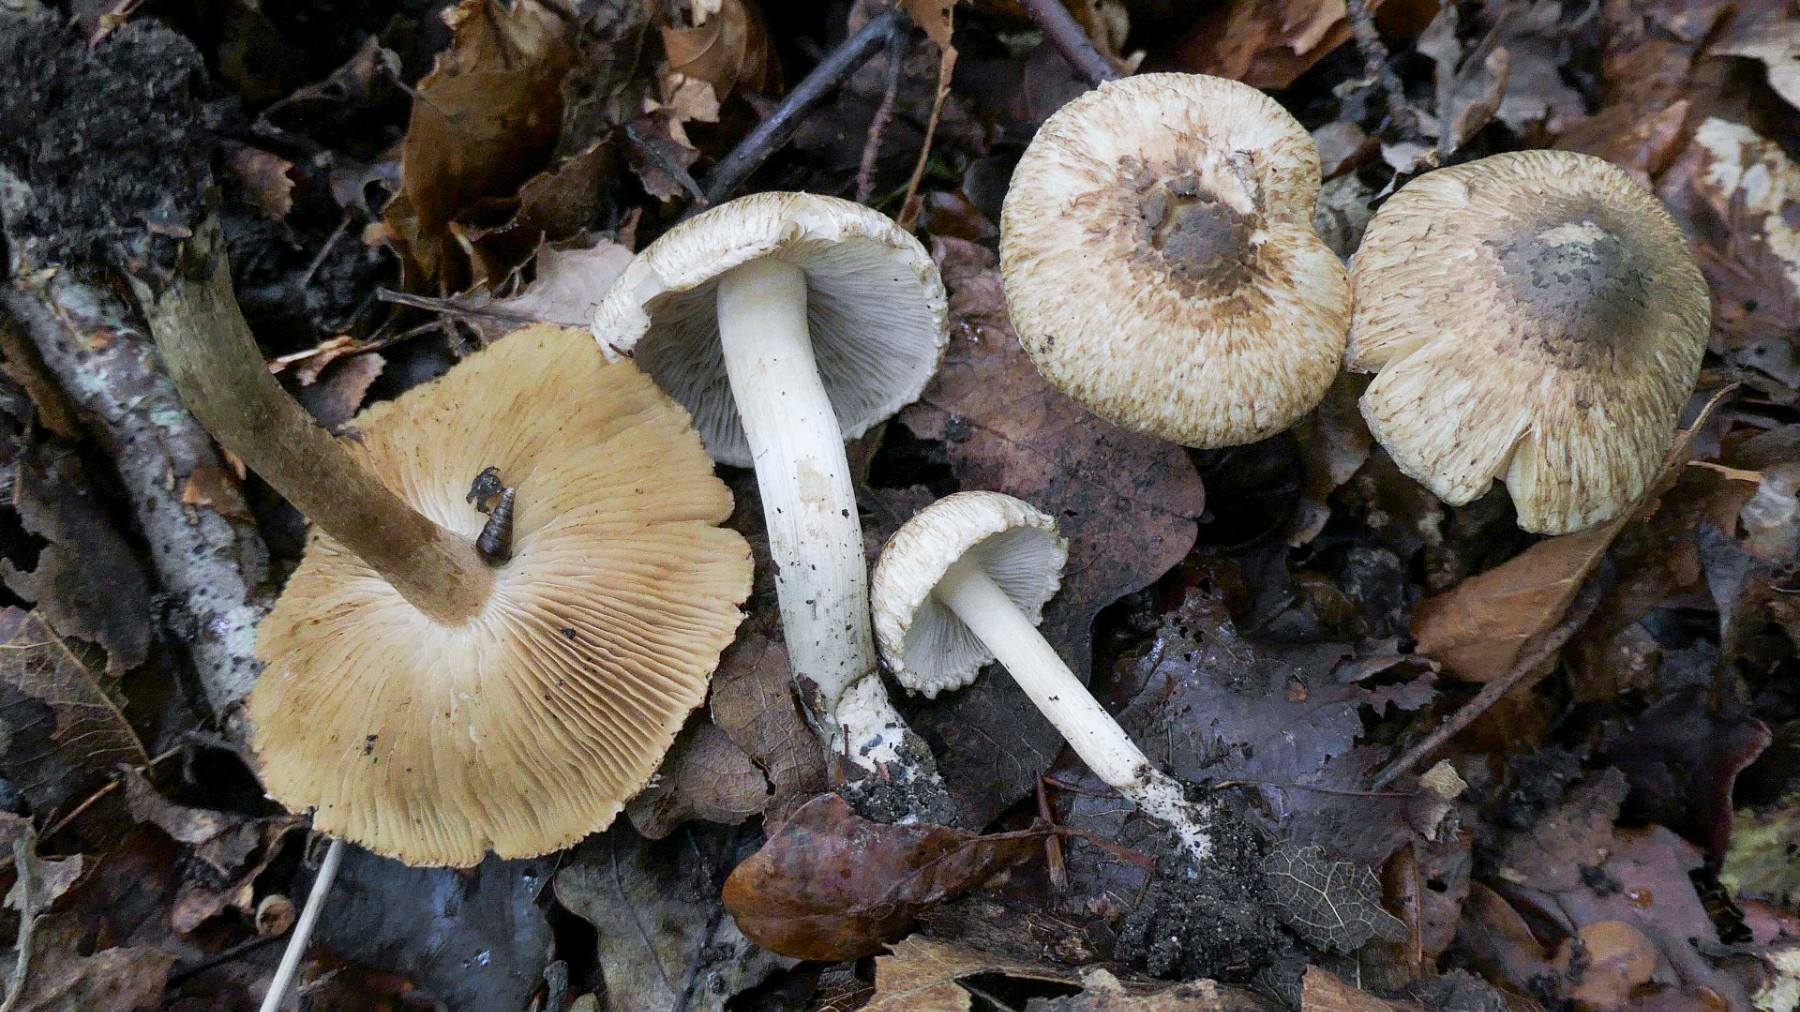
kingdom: Fungi
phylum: Basidiomycota
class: Agaricomycetes
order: Agaricales
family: Inocybaceae
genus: Inocybe
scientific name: Inocybe corydalina
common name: grønpuklet trævlhat
